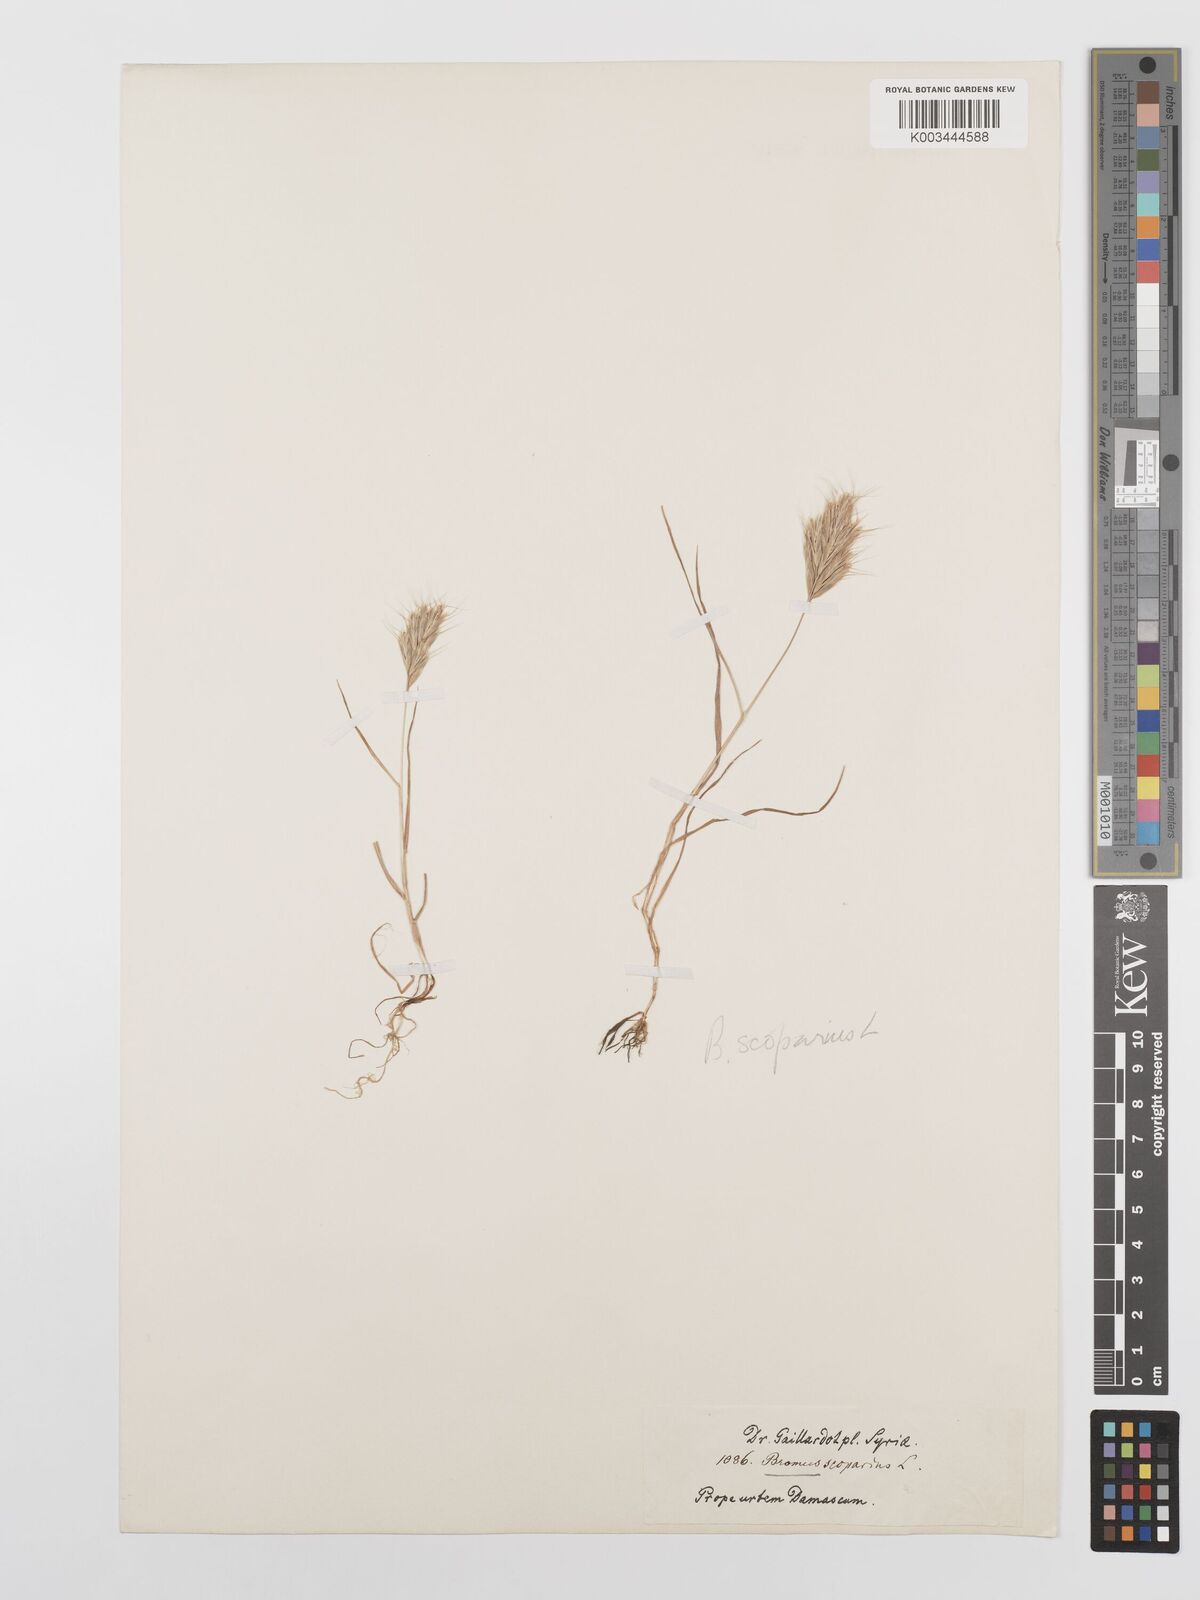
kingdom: Plantae
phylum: Tracheophyta
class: Liliopsida
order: Poales
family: Poaceae
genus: Bromus
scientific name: Bromus scoparius
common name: Broom brome
